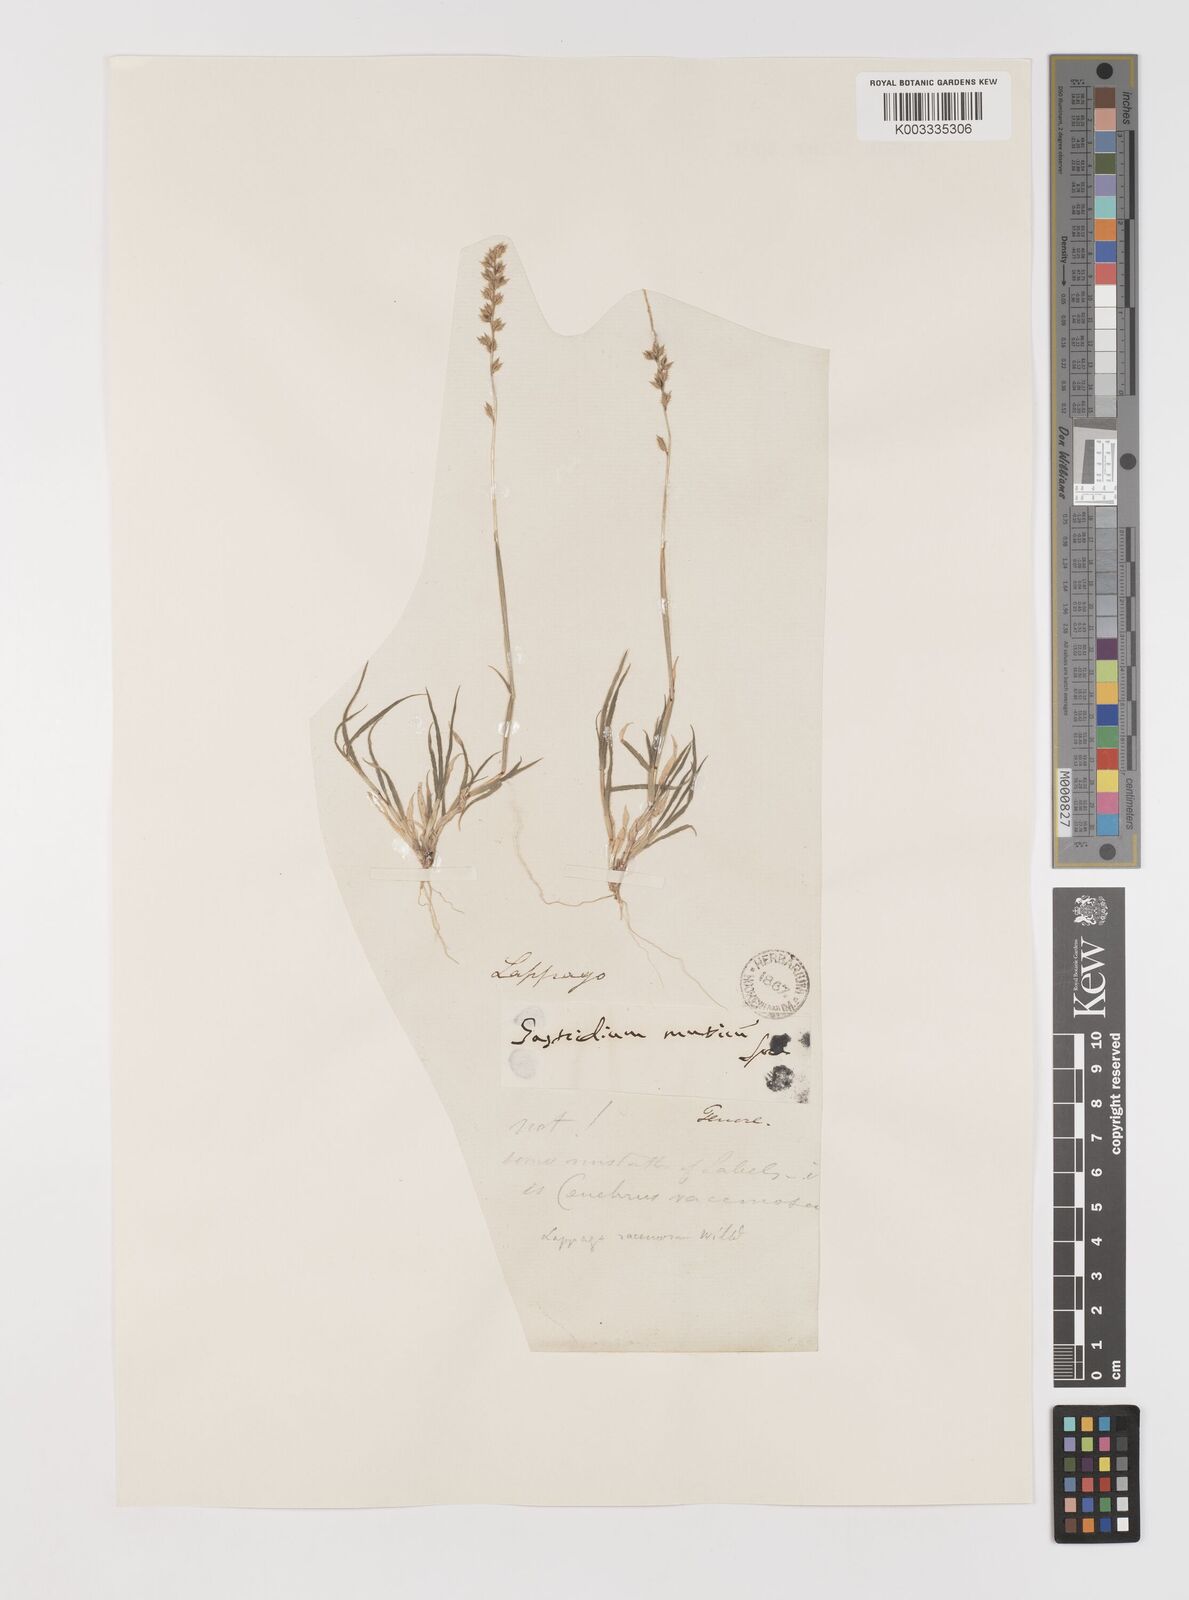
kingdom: Plantae
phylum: Tracheophyta
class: Liliopsida
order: Poales
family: Poaceae
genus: Tragus
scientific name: Tragus racemosus
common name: European bur-grass
